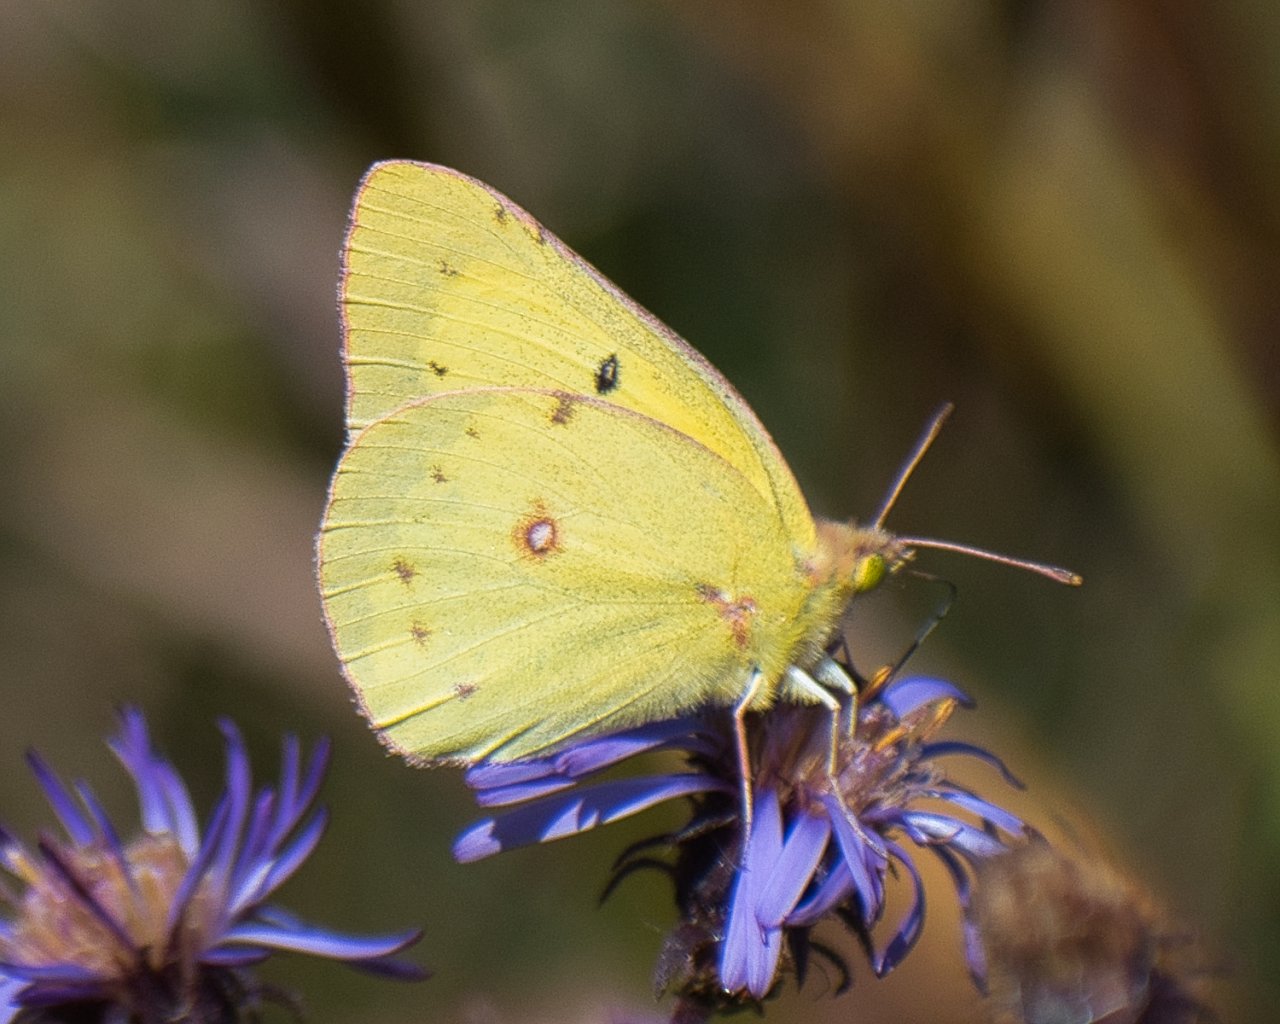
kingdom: Animalia
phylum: Arthropoda
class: Insecta
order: Lepidoptera
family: Pieridae
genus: Colias
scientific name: Colias philodice
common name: Clouded Sulphur
